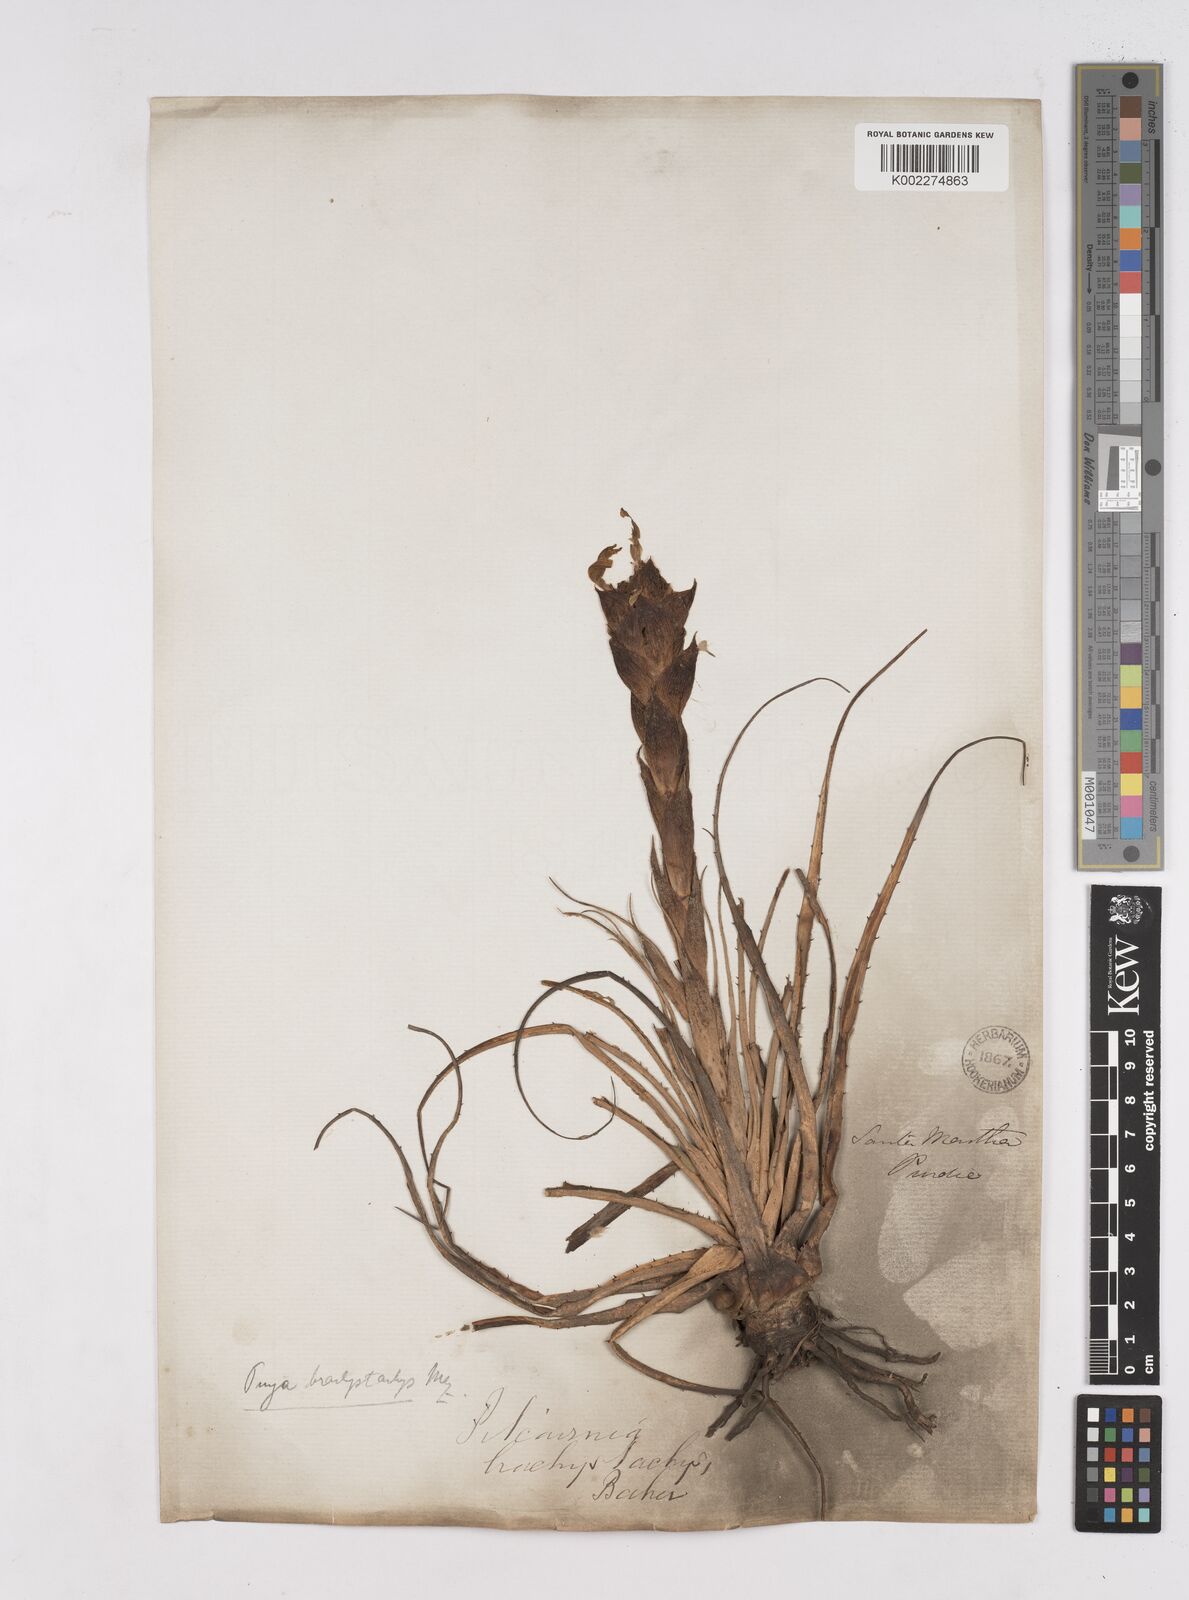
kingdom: Plantae
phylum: Tracheophyta
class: Liliopsida
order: Poales
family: Bromeliaceae
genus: Puya
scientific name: Puya brachystachya
